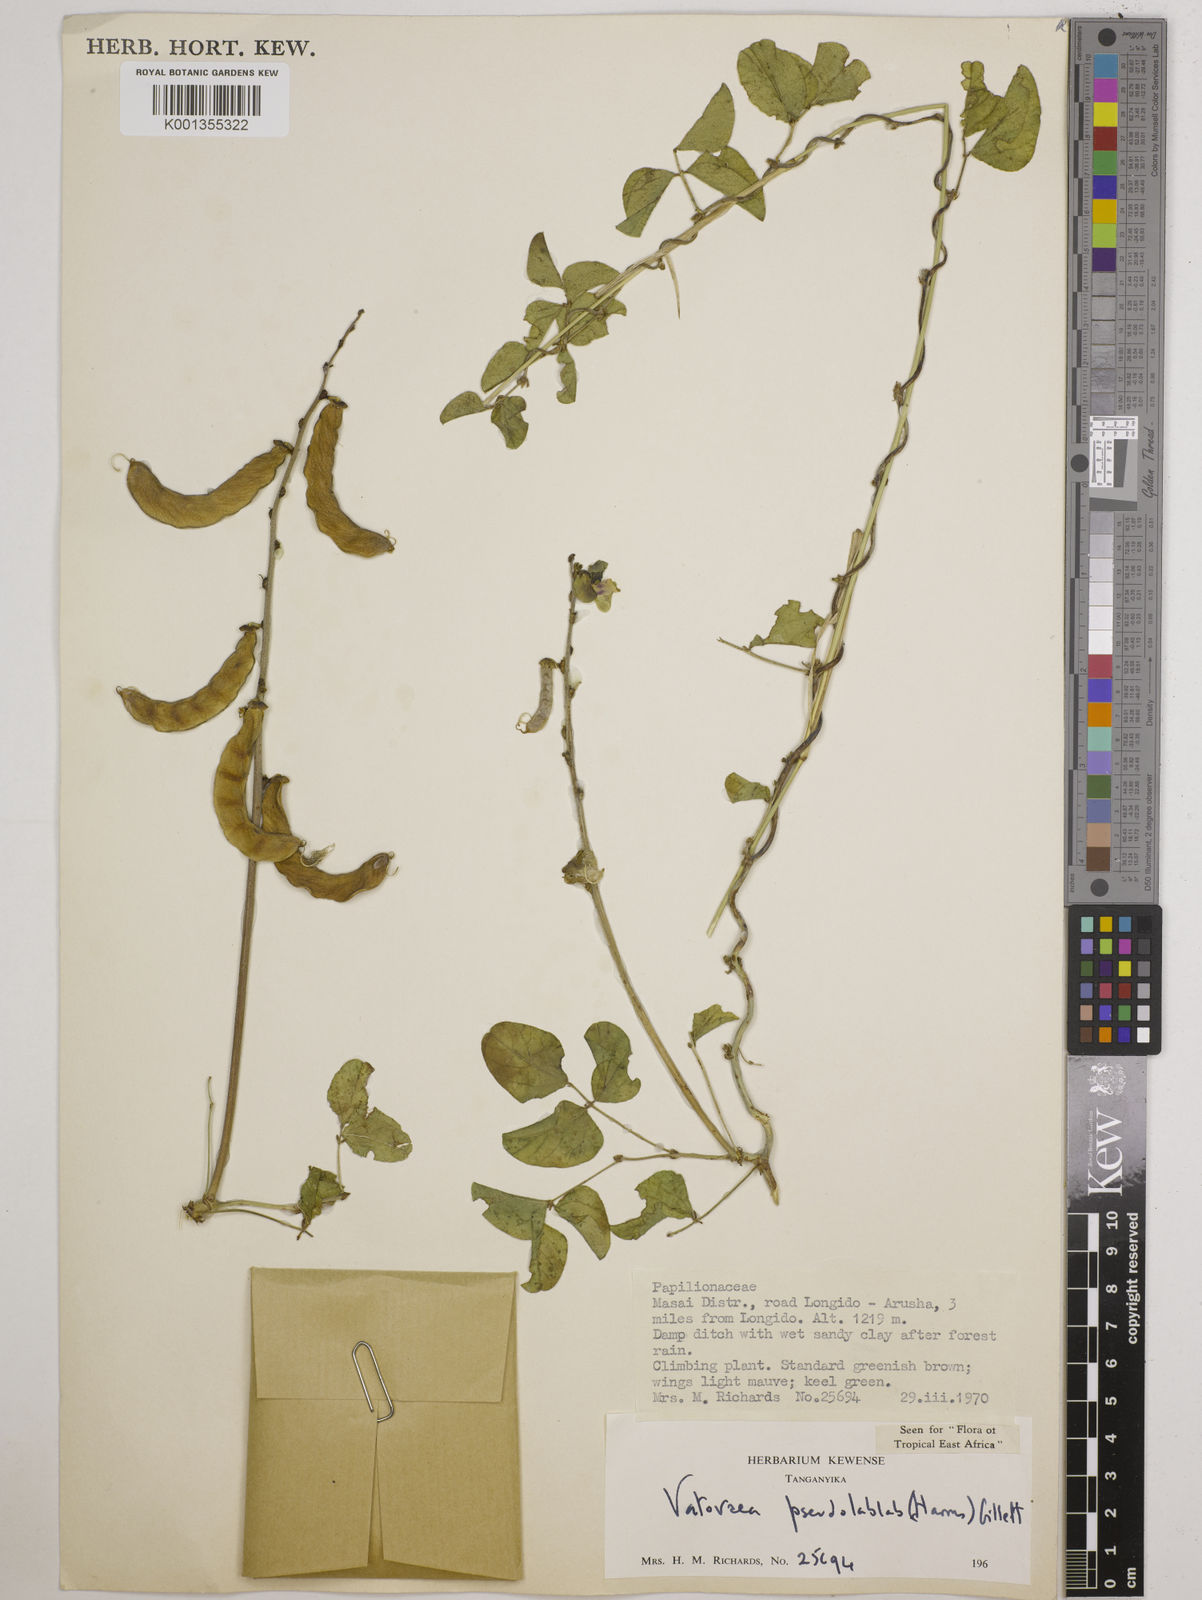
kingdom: Plantae
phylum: Tracheophyta
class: Magnoliopsida
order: Fabales
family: Fabaceae
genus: Vatovaea
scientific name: Vatovaea pseudolablab
